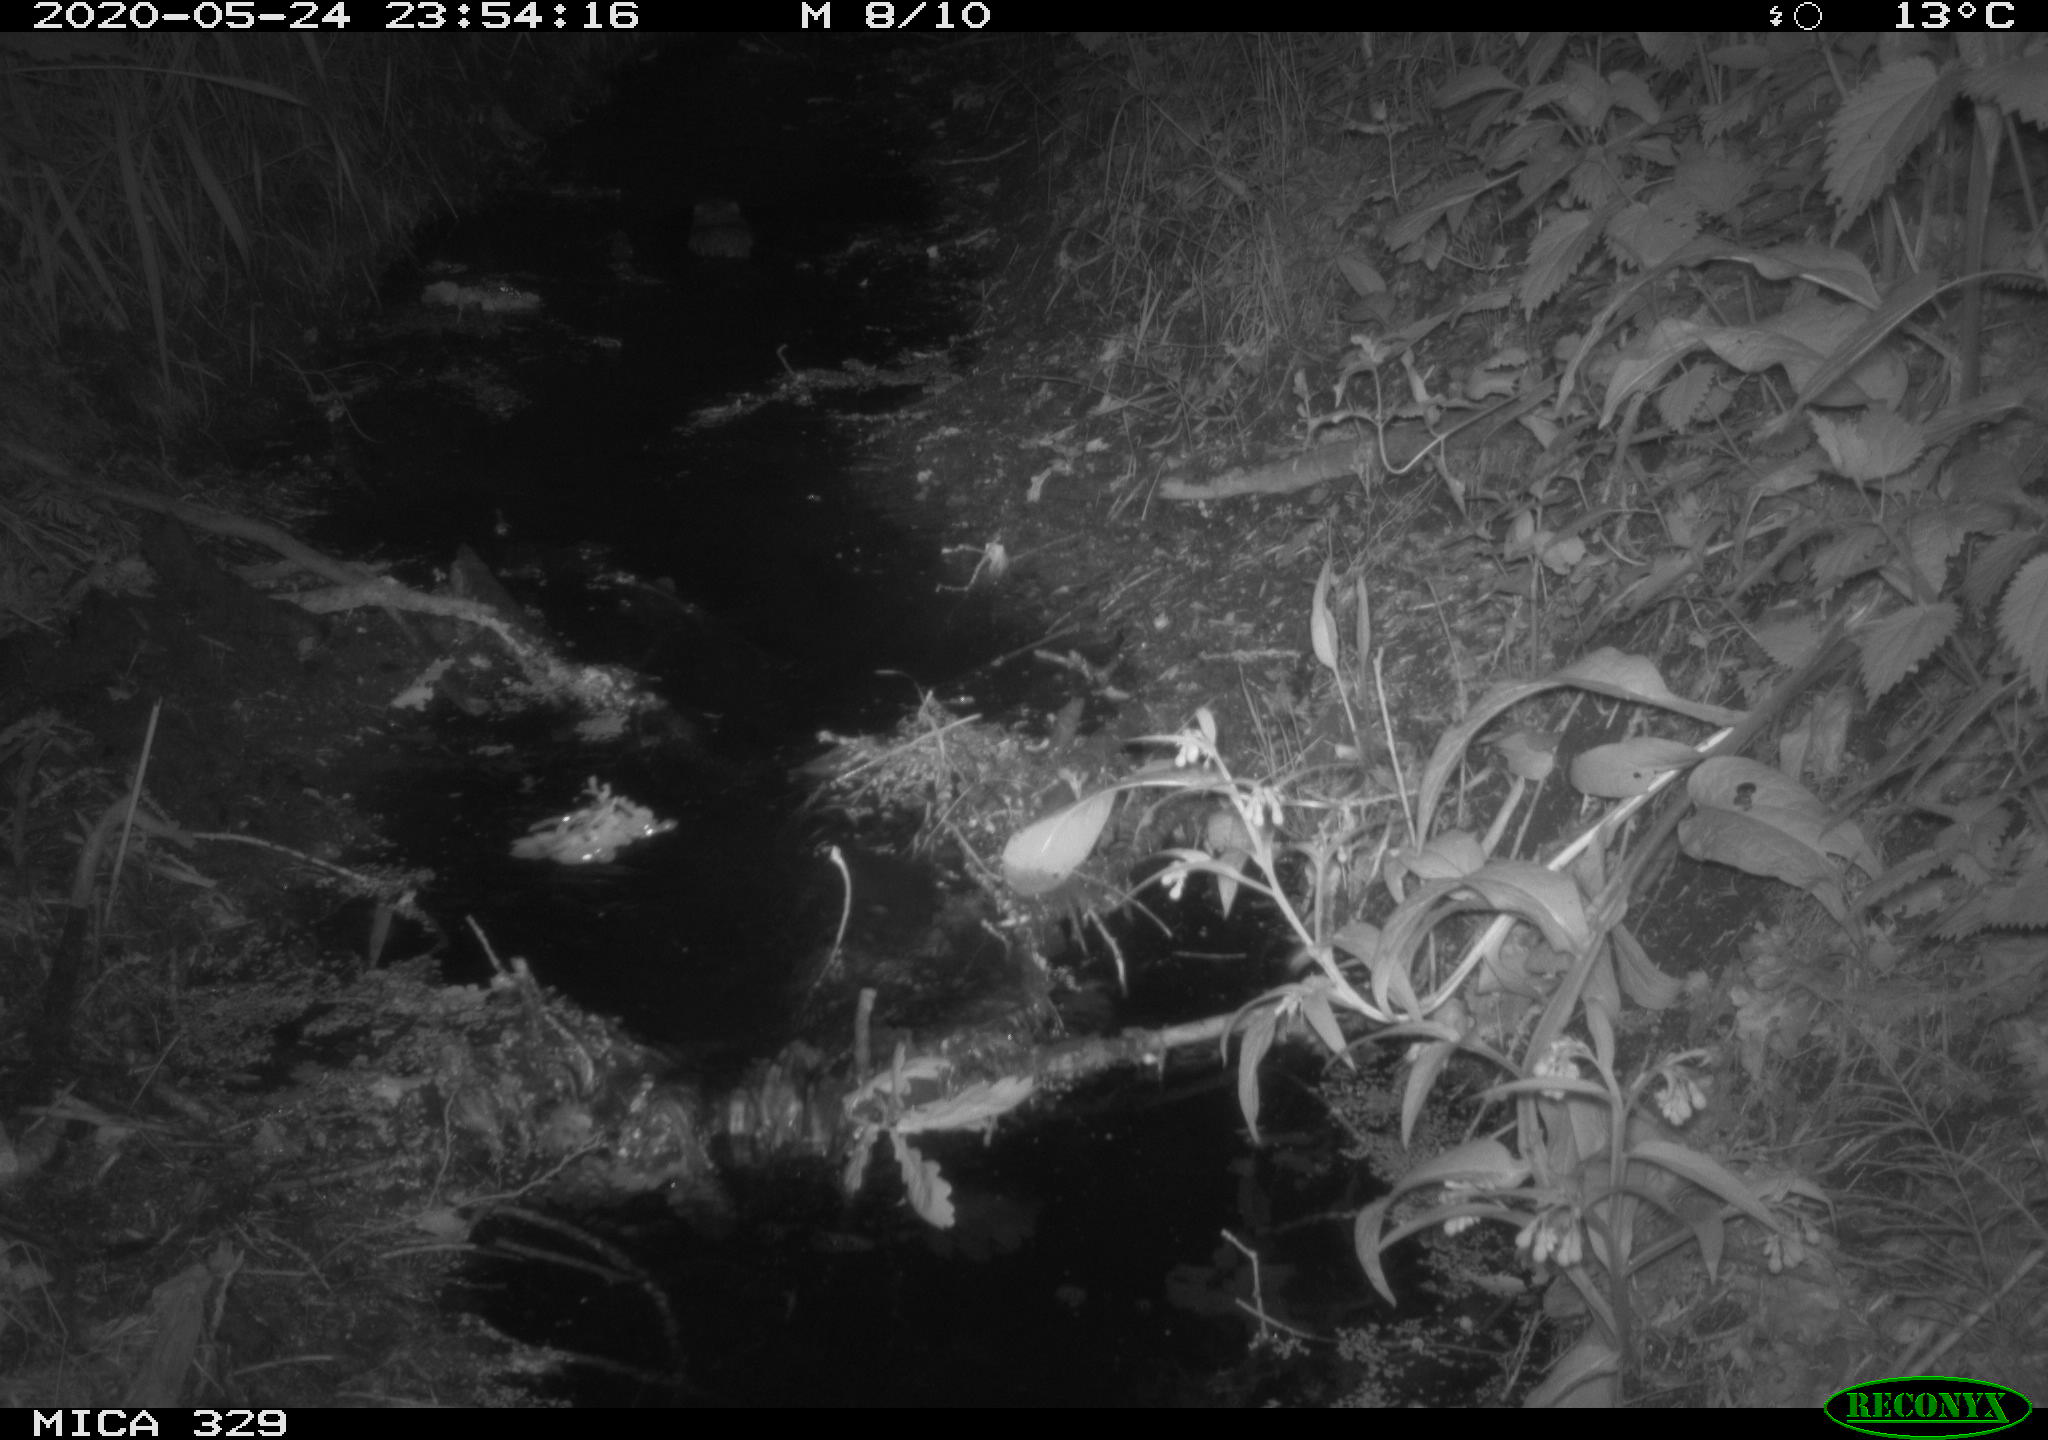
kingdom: Animalia
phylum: Chordata
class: Mammalia
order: Rodentia
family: Cricetidae
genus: Ondatra
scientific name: Ondatra zibethicus
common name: Muskrat
